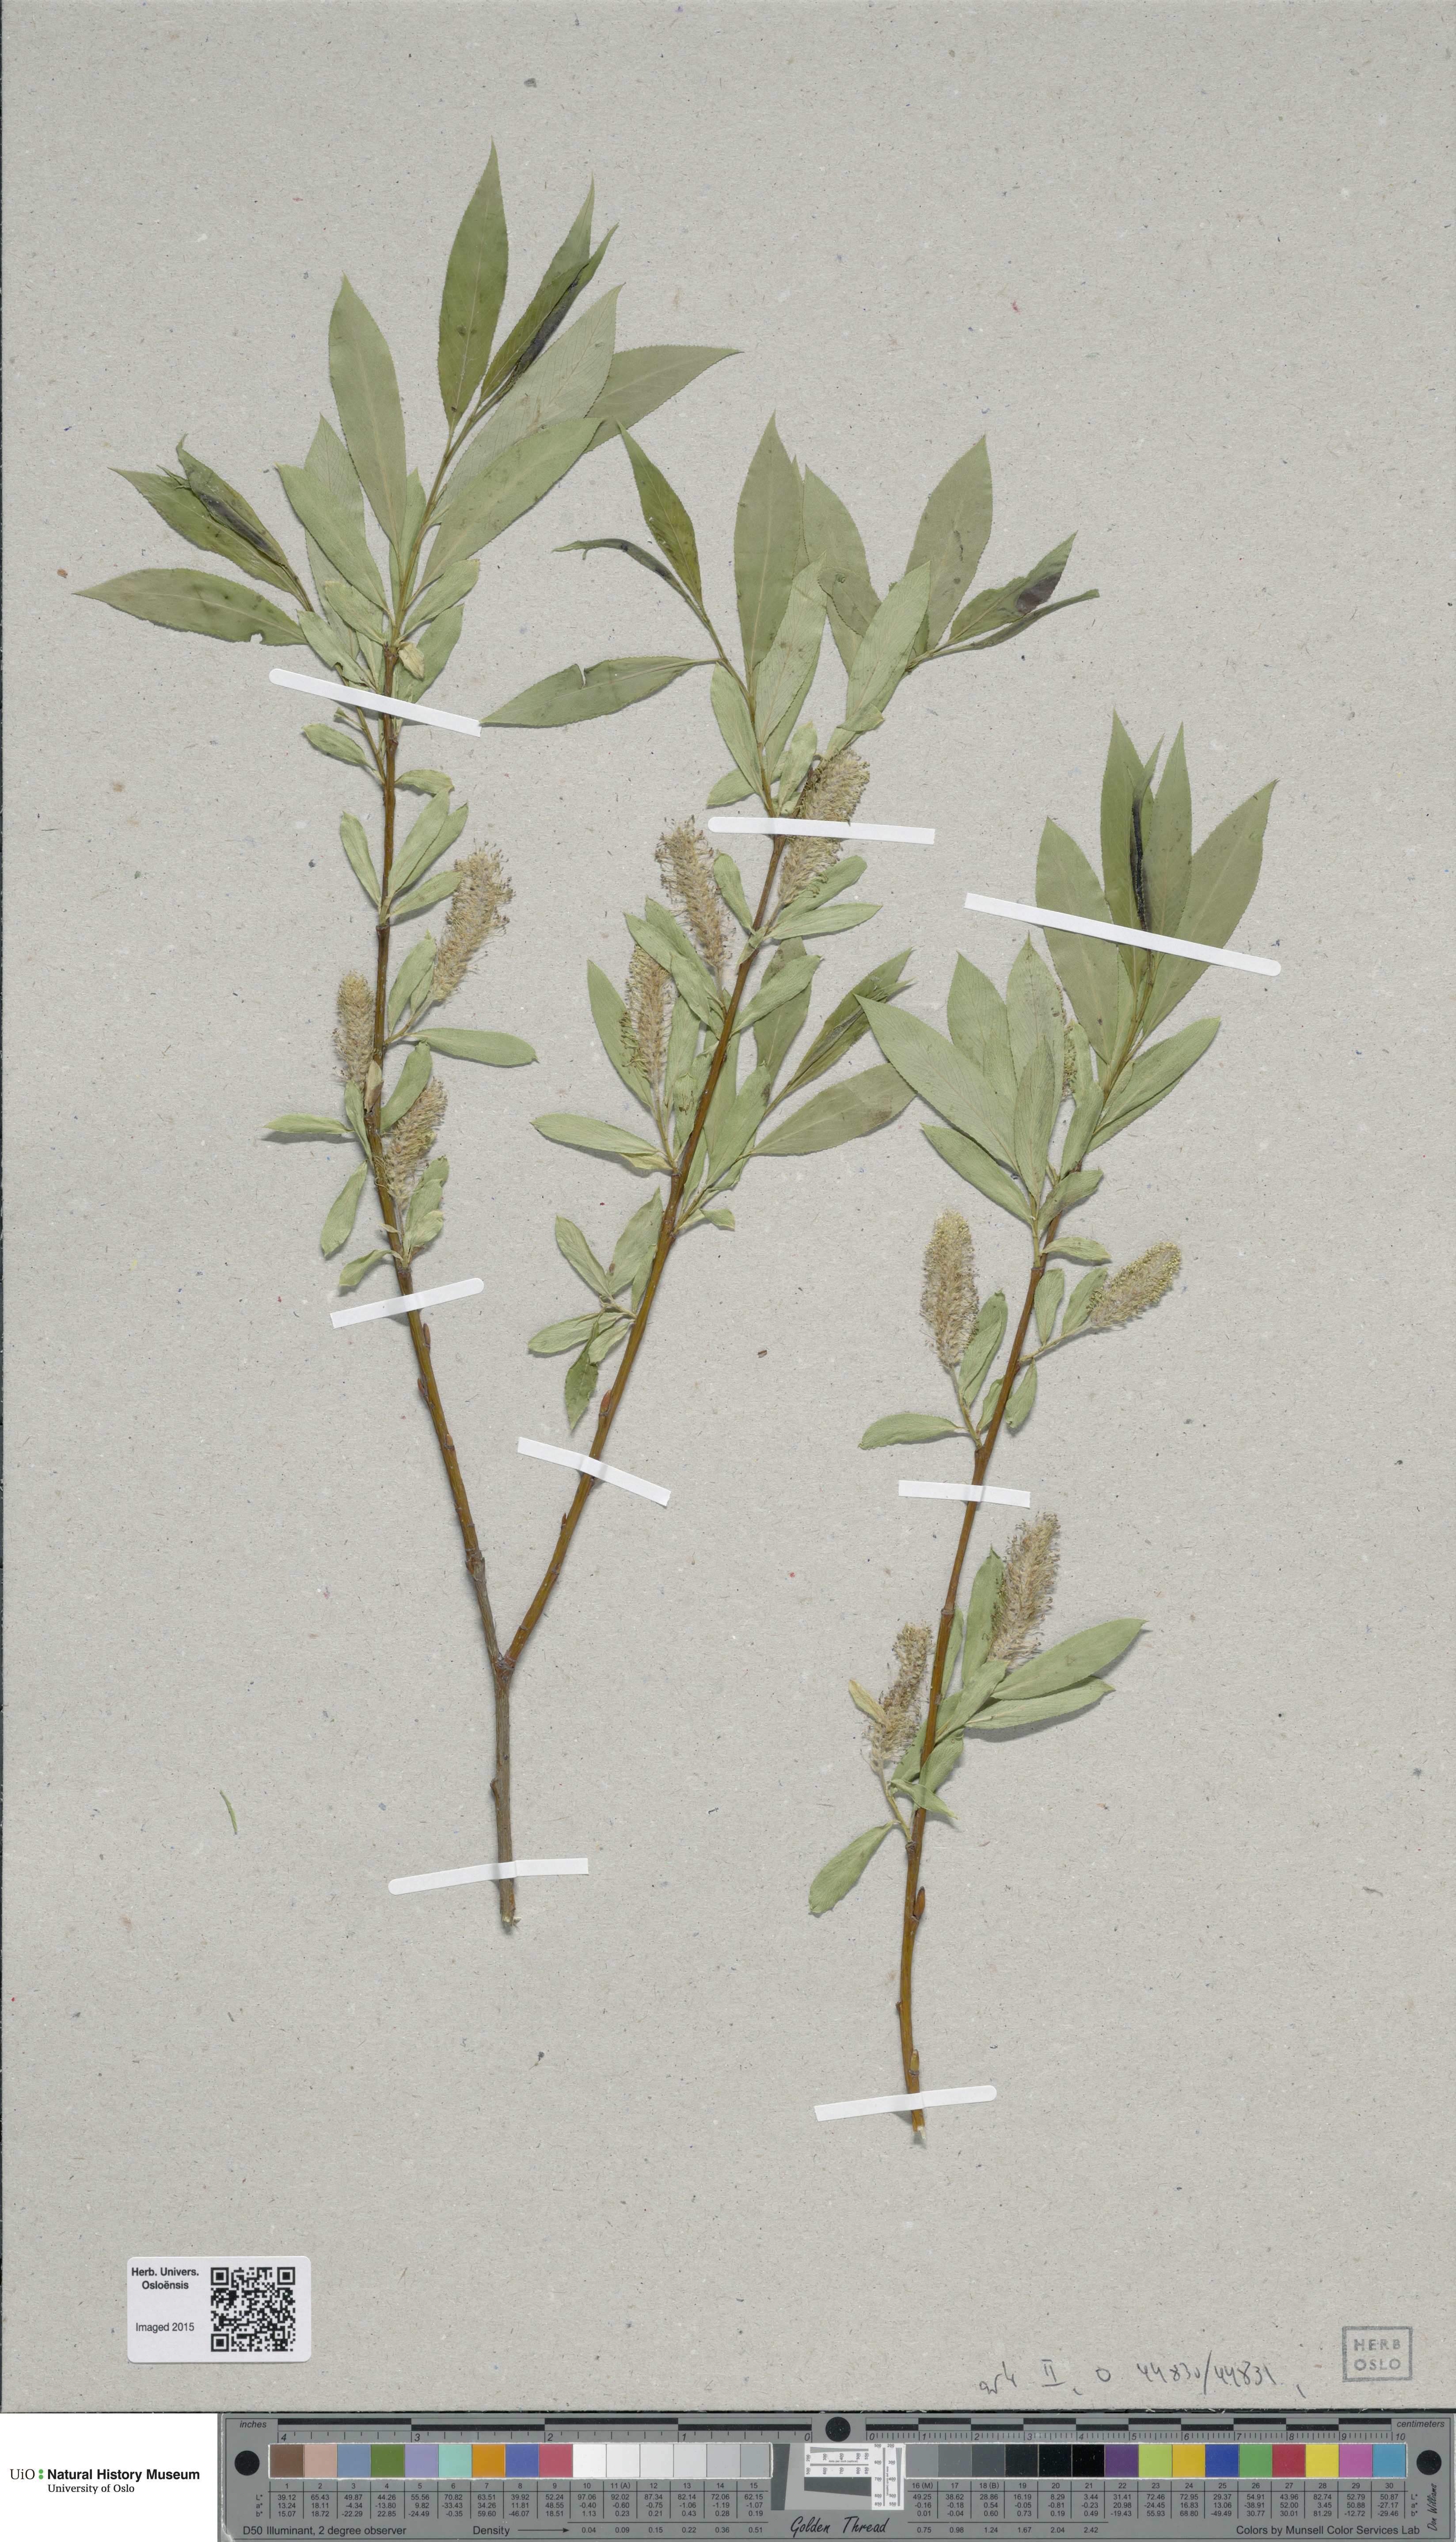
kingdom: Plantae
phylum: Tracheophyta
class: Magnoliopsida
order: Malpighiales
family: Salicaceae
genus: Salix
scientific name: Salix
